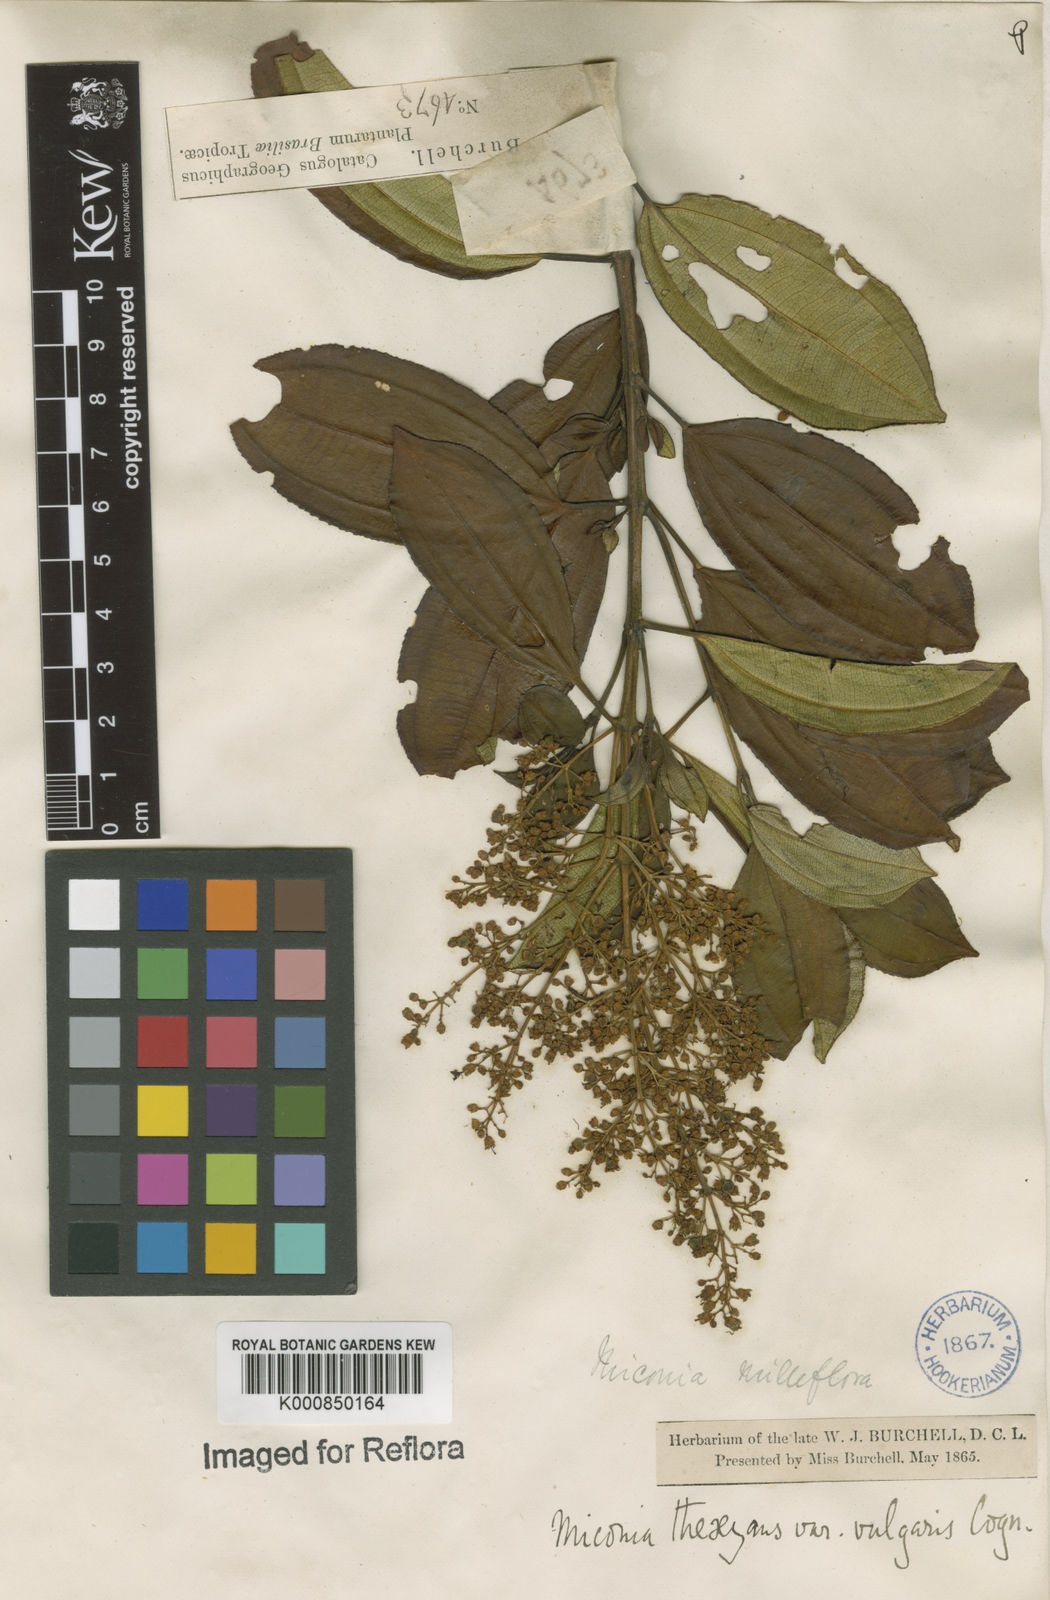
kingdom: Plantae
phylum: Tracheophyta
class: Magnoliopsida
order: Myrtales
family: Melastomataceae
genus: Miconia
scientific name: Miconia
